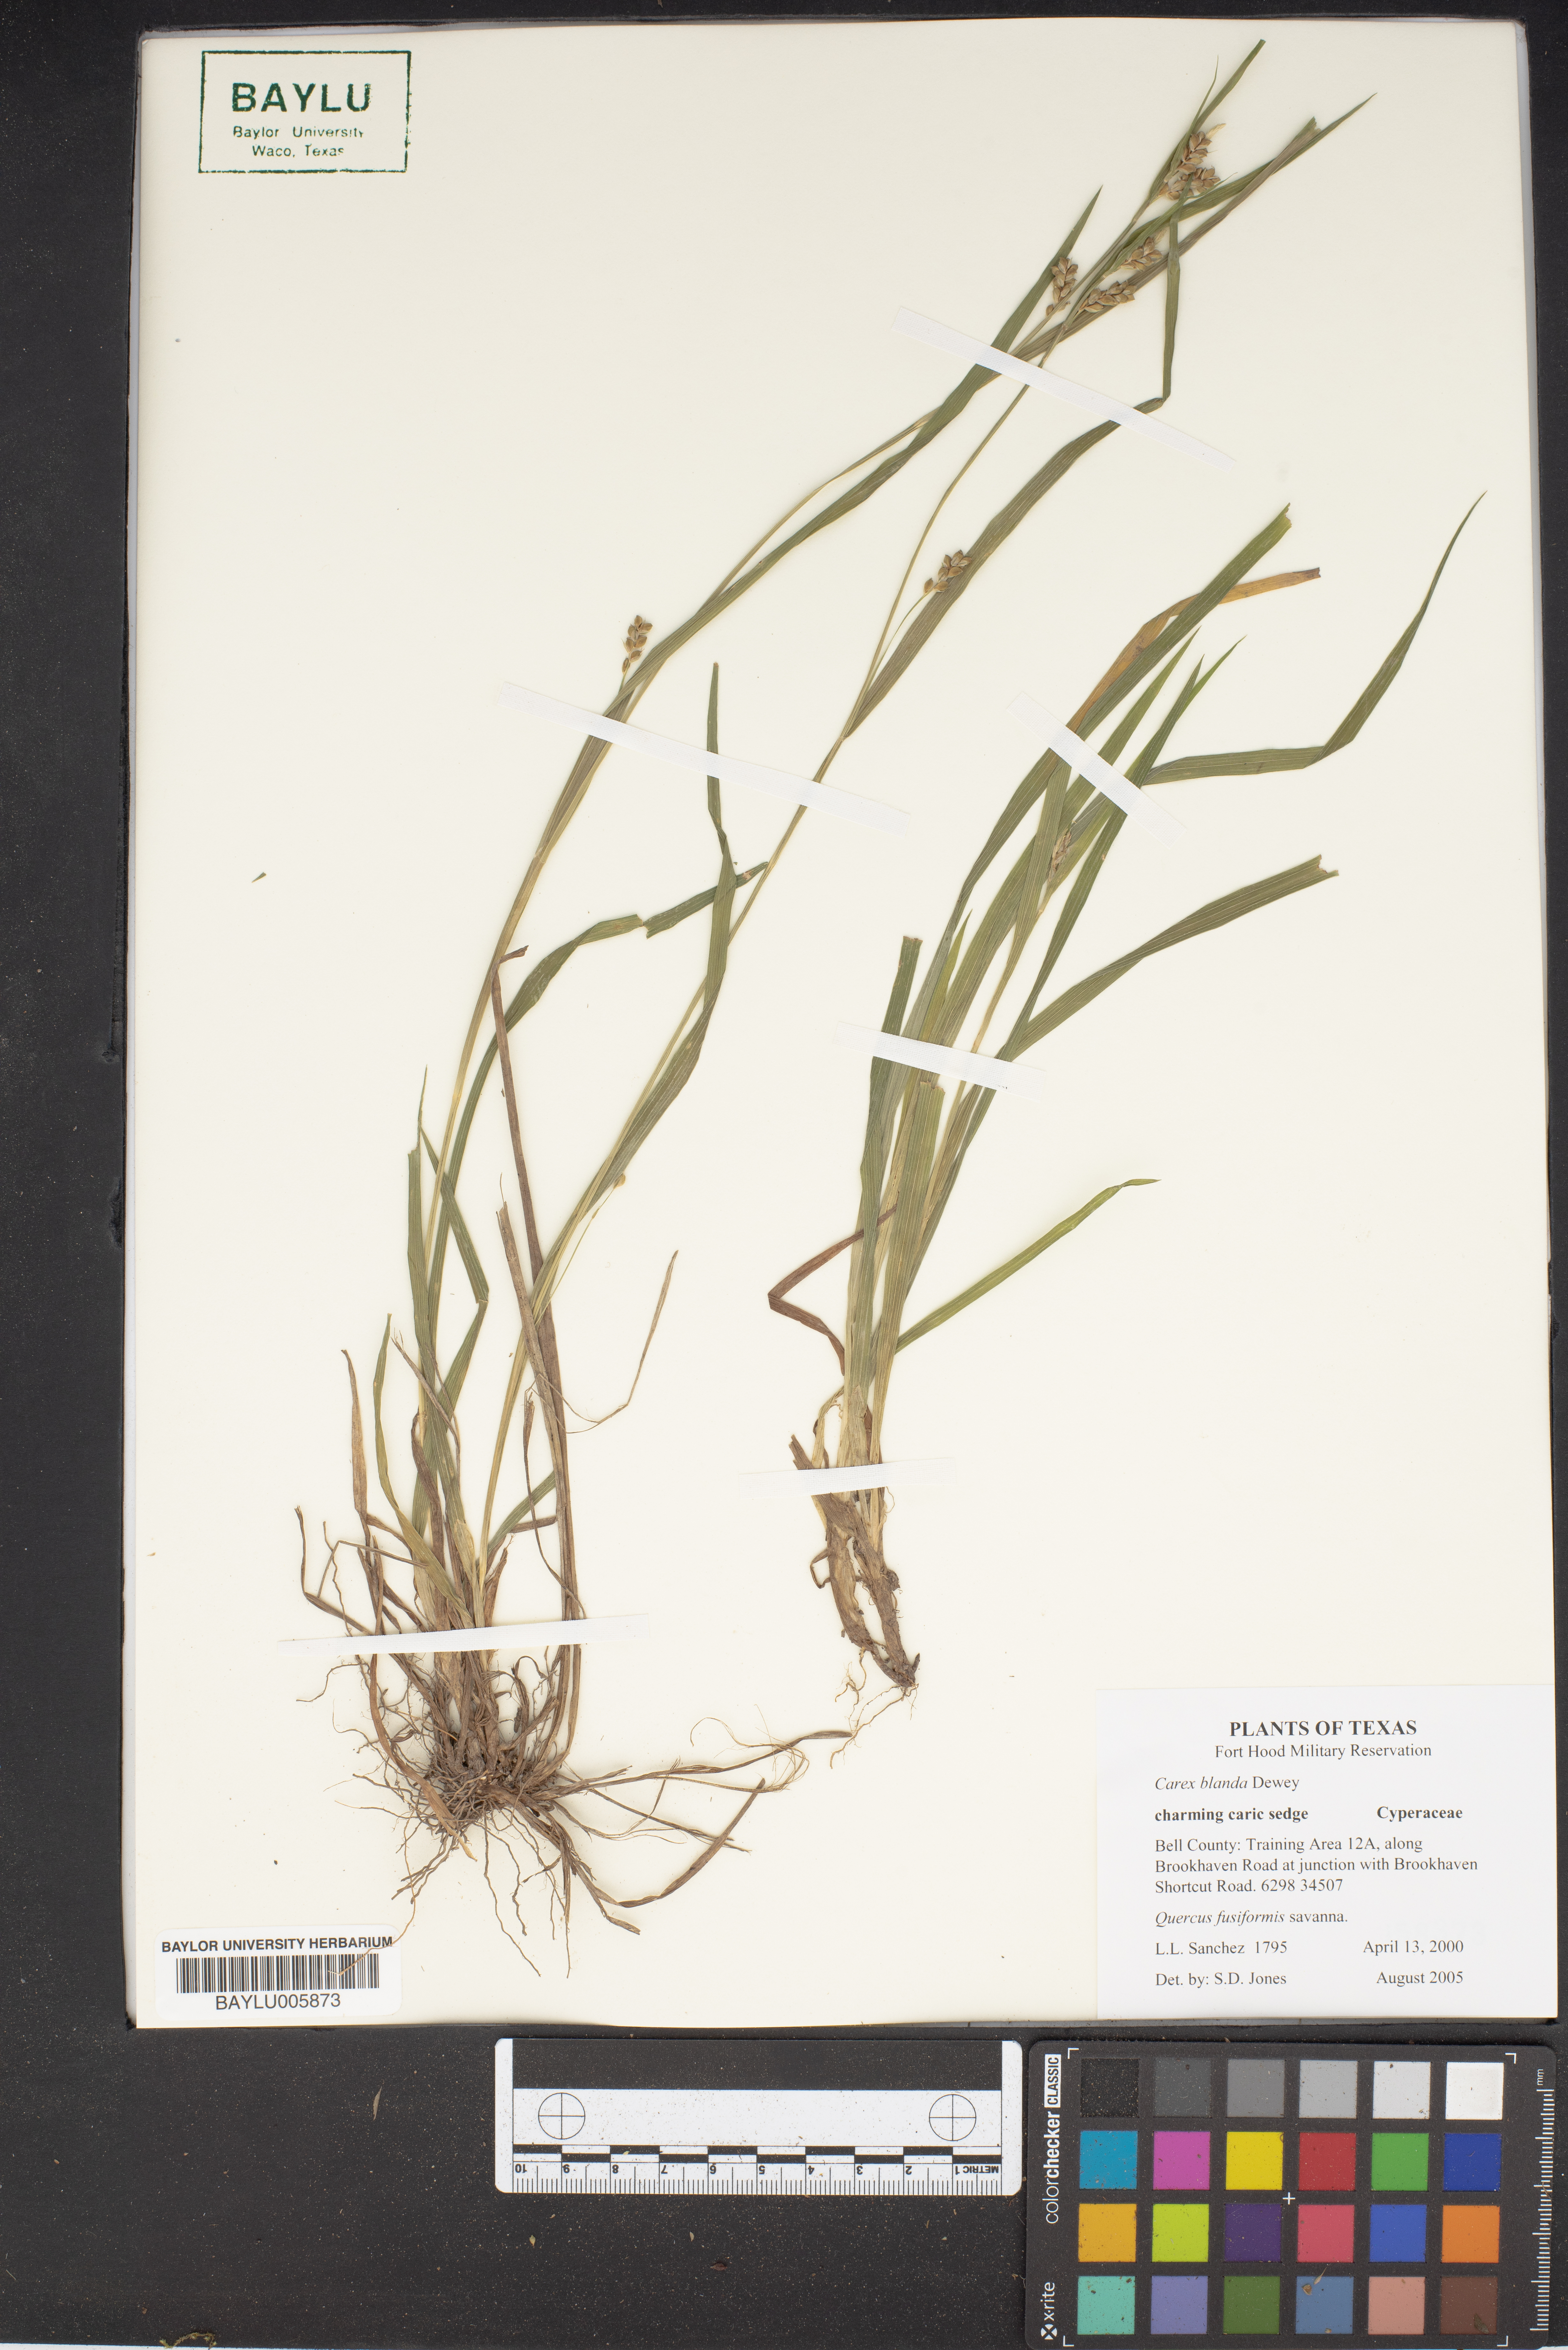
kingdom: Plantae
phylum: Tracheophyta
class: Magnoliopsida
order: Fagales
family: Fagaceae
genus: Quercus
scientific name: Quercus fusiformis
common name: Texas live oak
